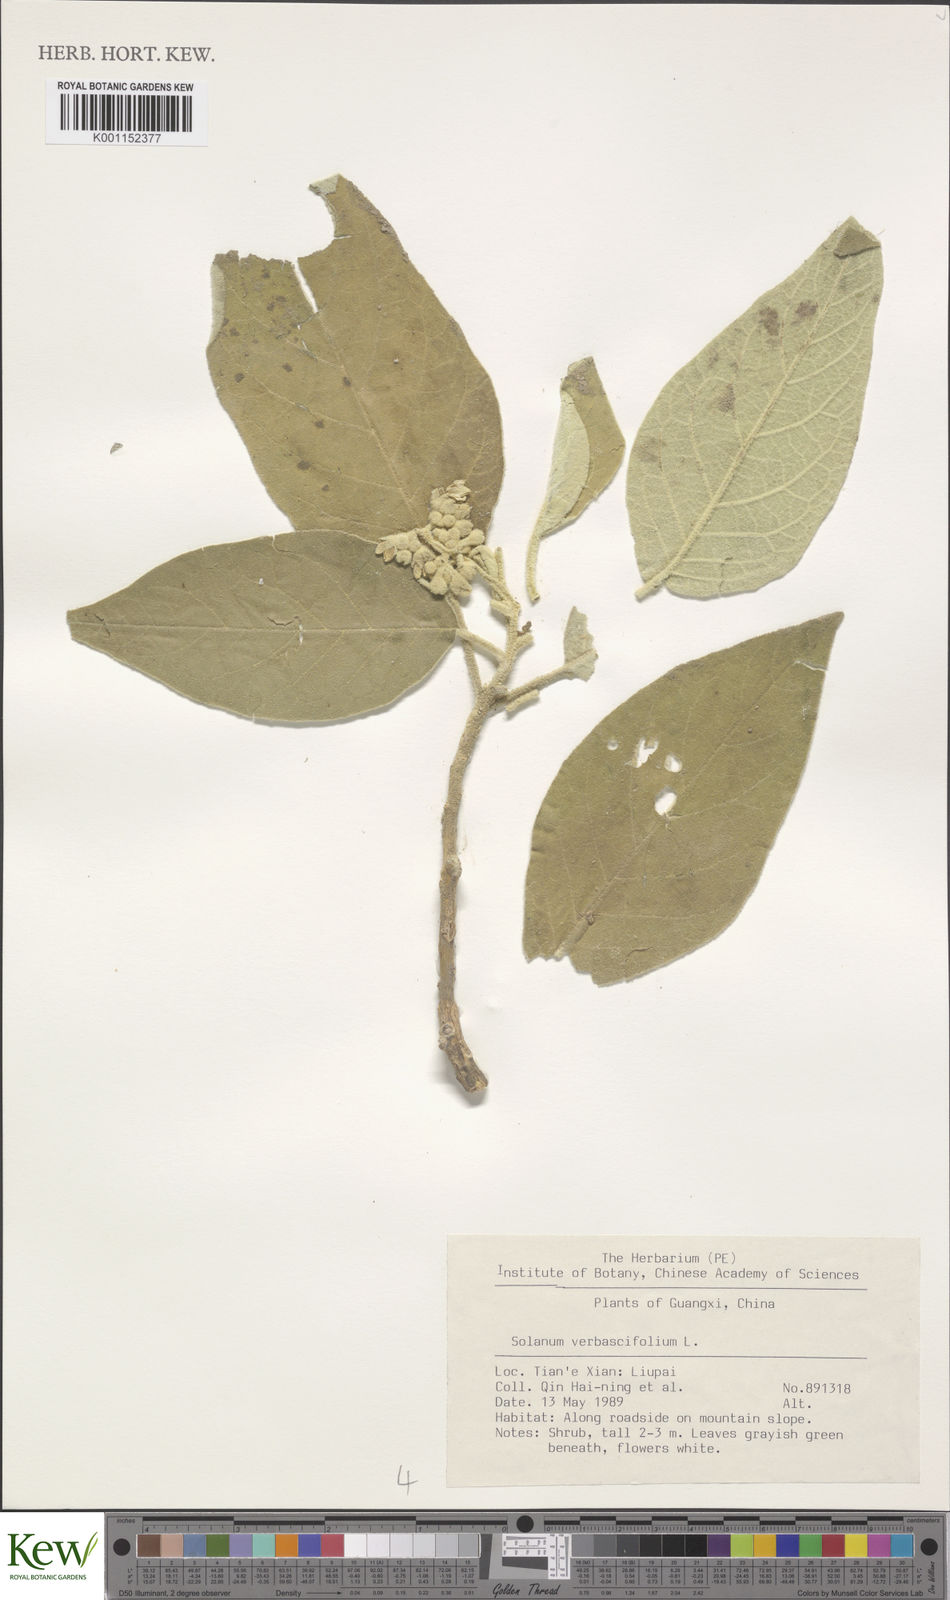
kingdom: Plantae
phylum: Tracheophyta
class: Magnoliopsida
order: Solanales
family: Solanaceae
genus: Solanum
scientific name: Solanum donianum
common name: Mullein nightshade
